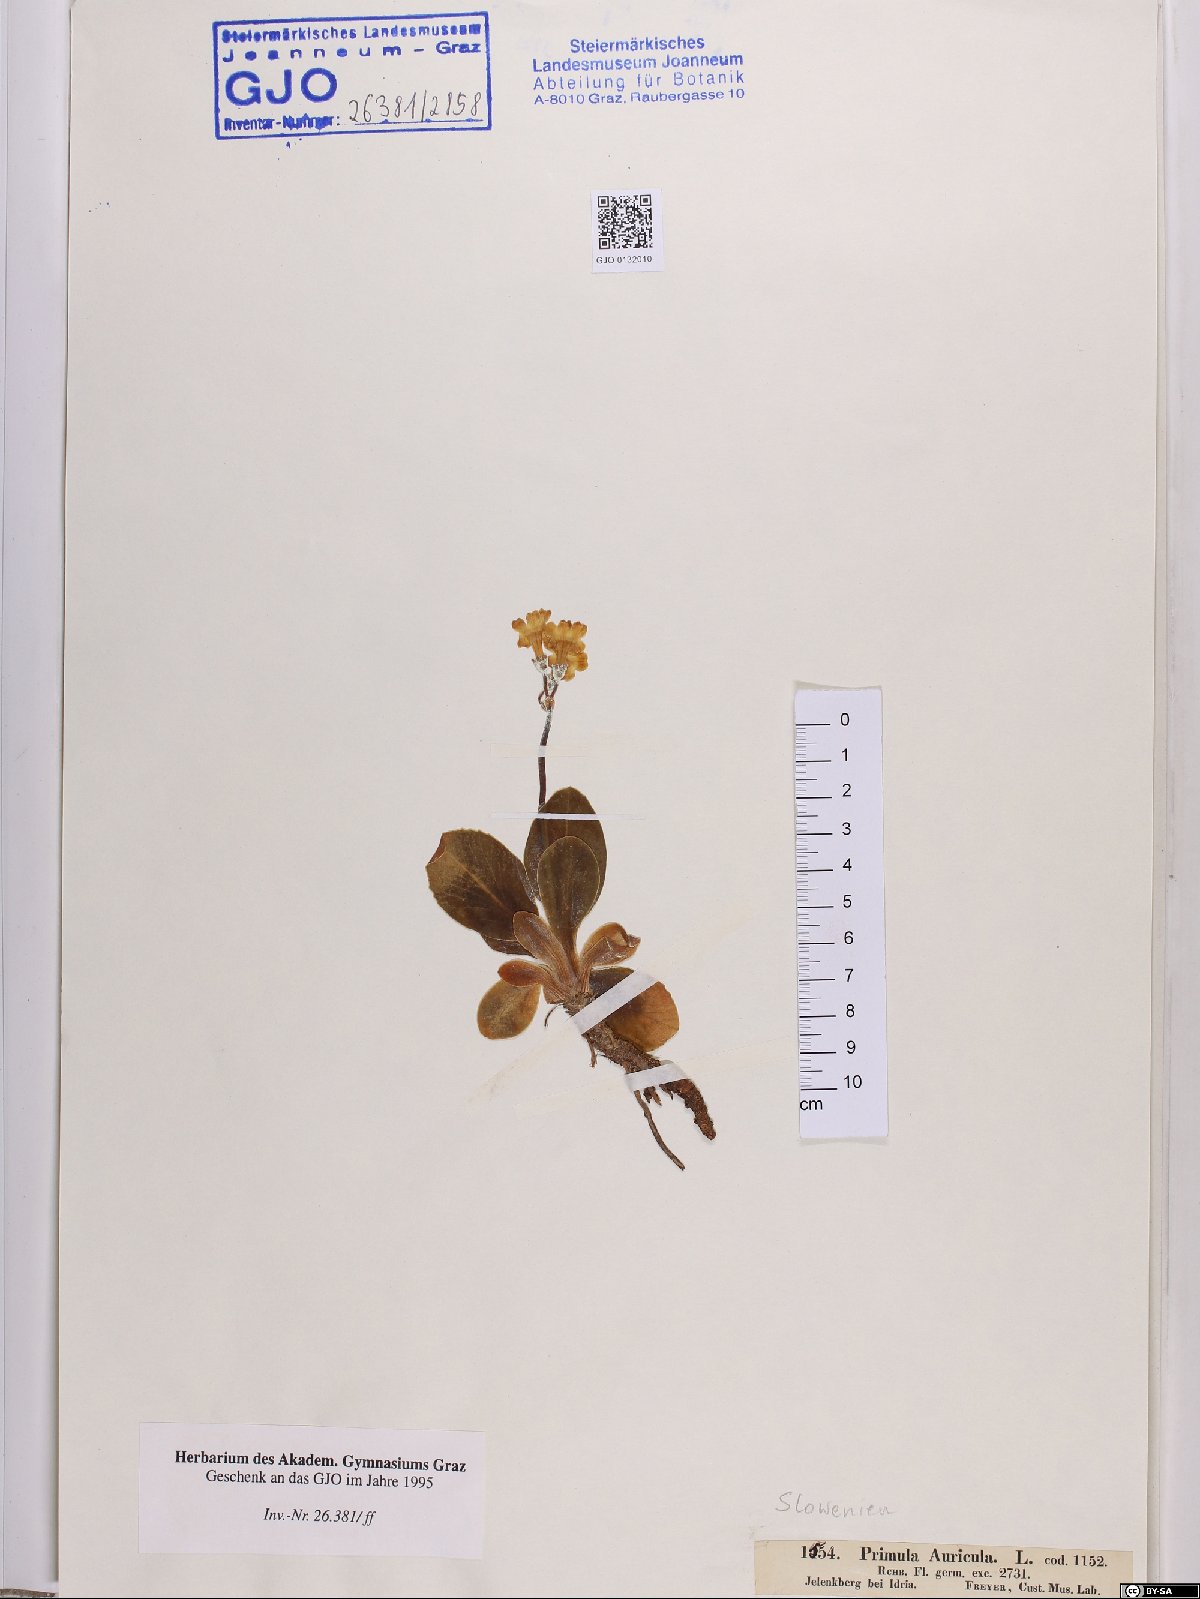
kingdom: Plantae
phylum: Tracheophyta
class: Magnoliopsida
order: Ericales
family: Primulaceae
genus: Primula
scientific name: Primula auricula
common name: Auricula
